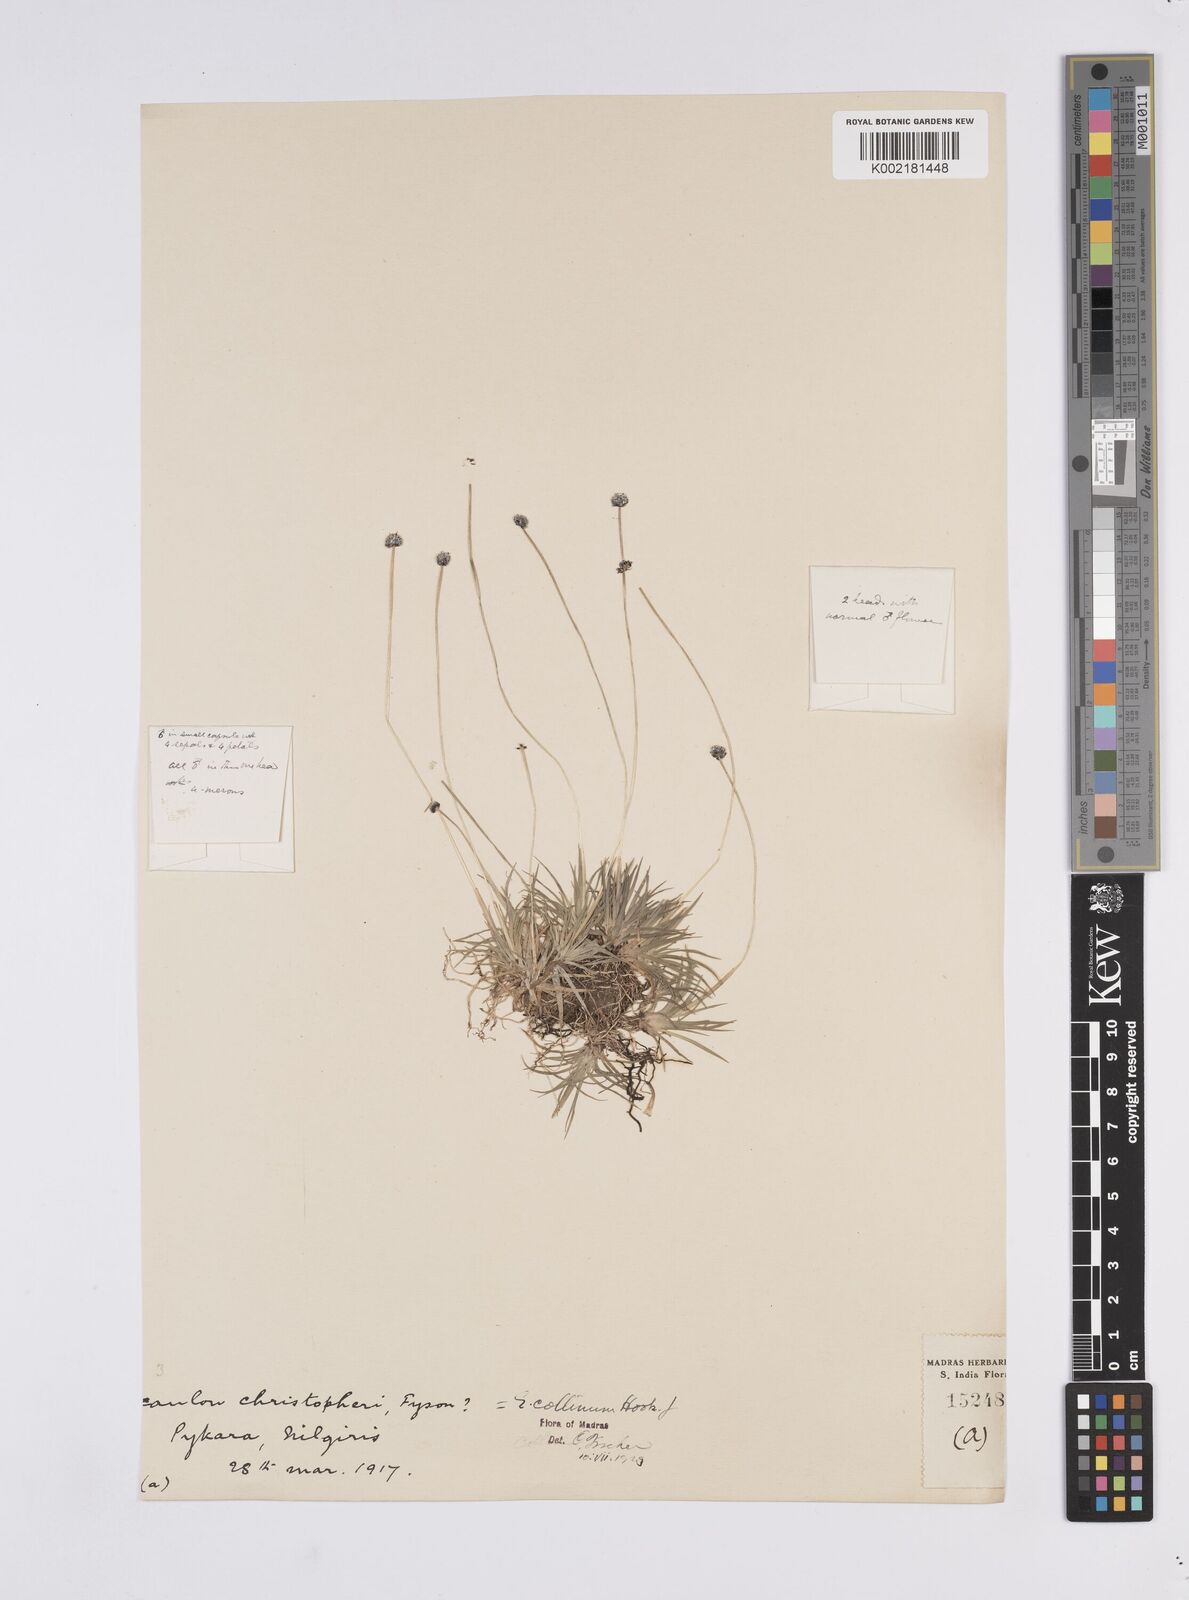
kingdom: Plantae
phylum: Tracheophyta
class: Liliopsida
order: Poales
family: Eriocaulaceae
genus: Eriocaulon
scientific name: Eriocaulon odoratum
